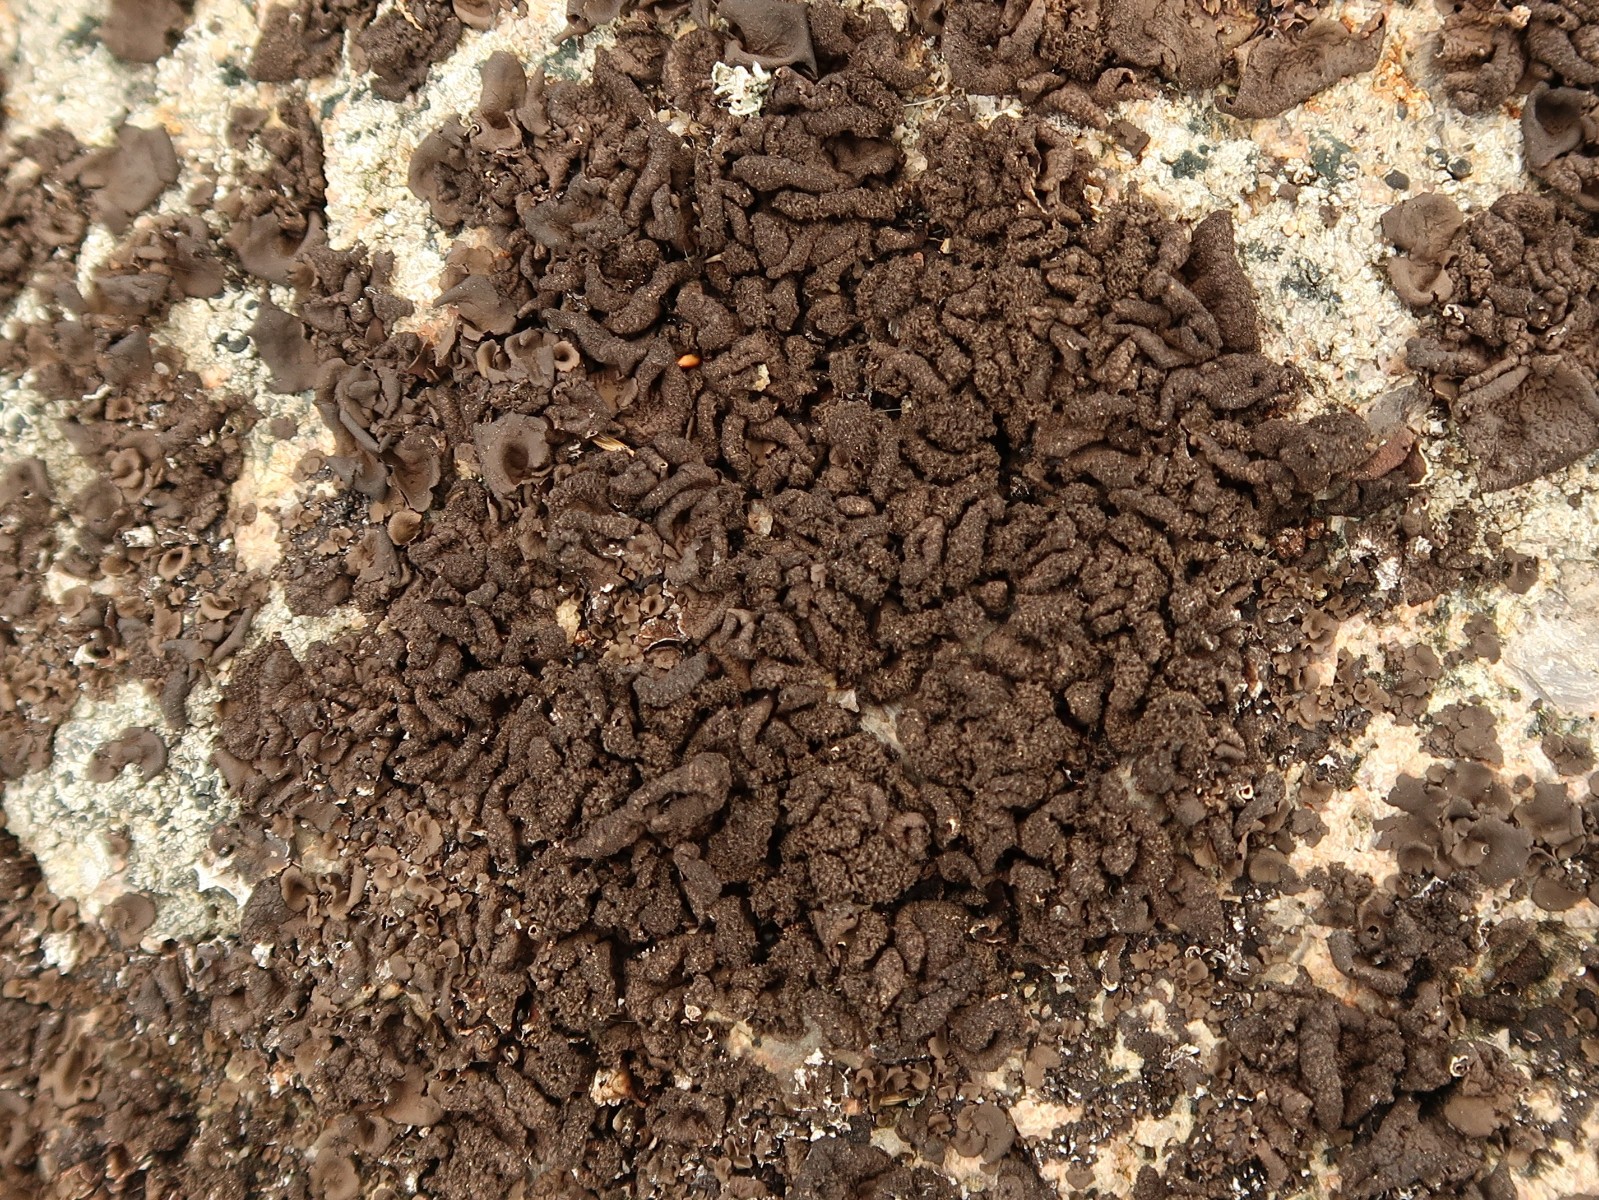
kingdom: Fungi
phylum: Ascomycota
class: Lecanoromycetes
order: Umbilicariales
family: Umbilicariaceae
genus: Umbilicaria
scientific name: Umbilicaria deusta
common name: kliddet navlelav
